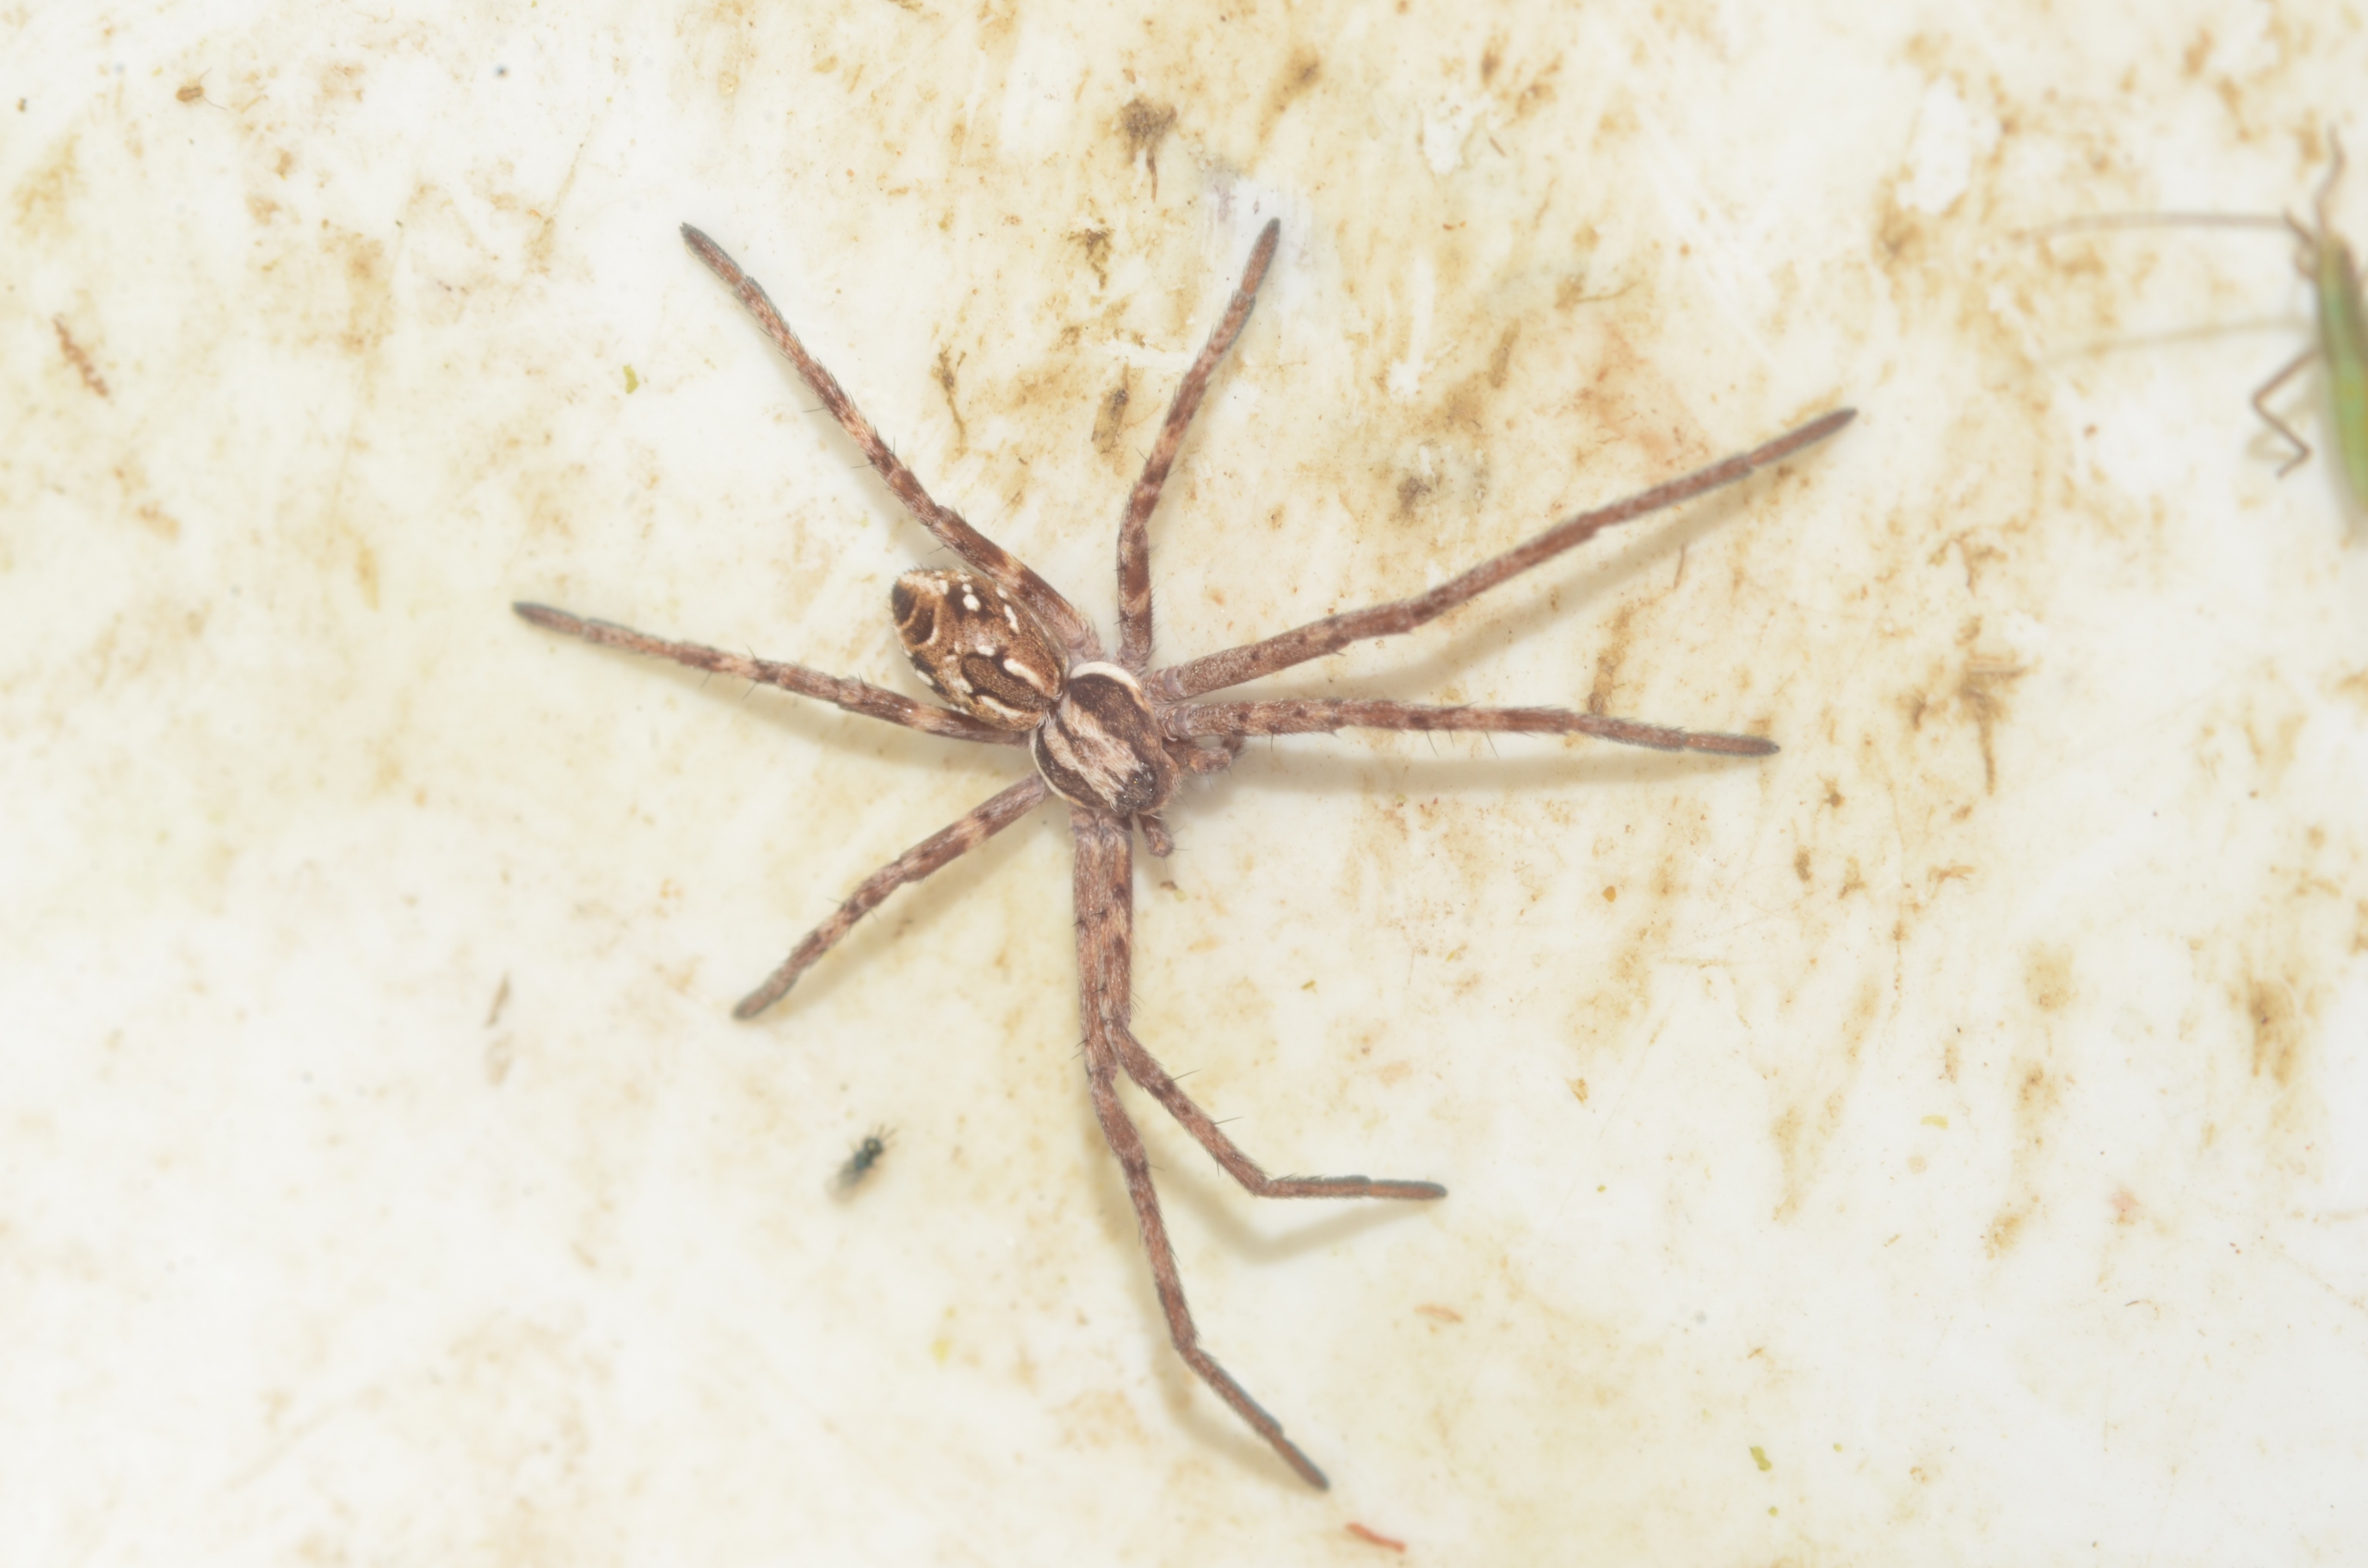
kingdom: Animalia
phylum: Arthropoda
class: Arachnida
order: Araneae
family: Philodromidae
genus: Rhysodromus
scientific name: Rhysodromus histrio
